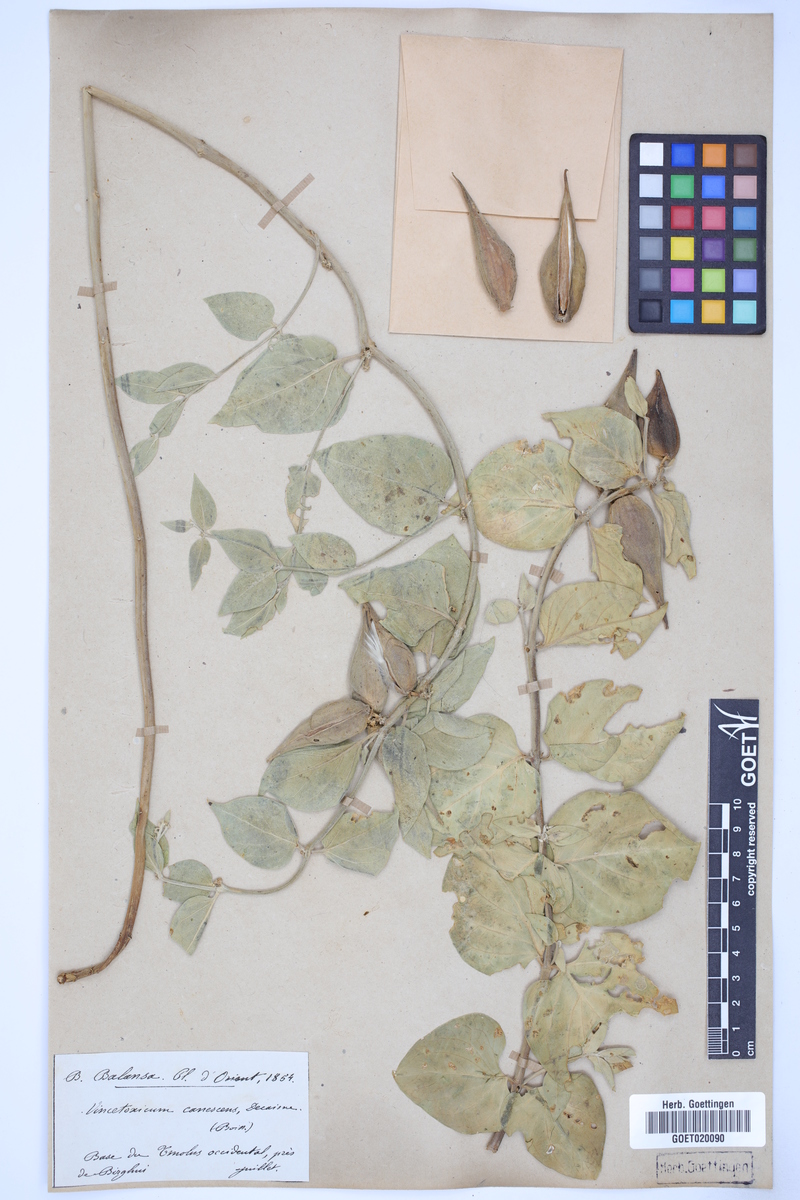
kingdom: Plantae
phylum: Tracheophyta
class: Magnoliopsida
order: Gentianales
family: Apocynaceae
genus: Vincetoxicum
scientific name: Vincetoxicum canescens
